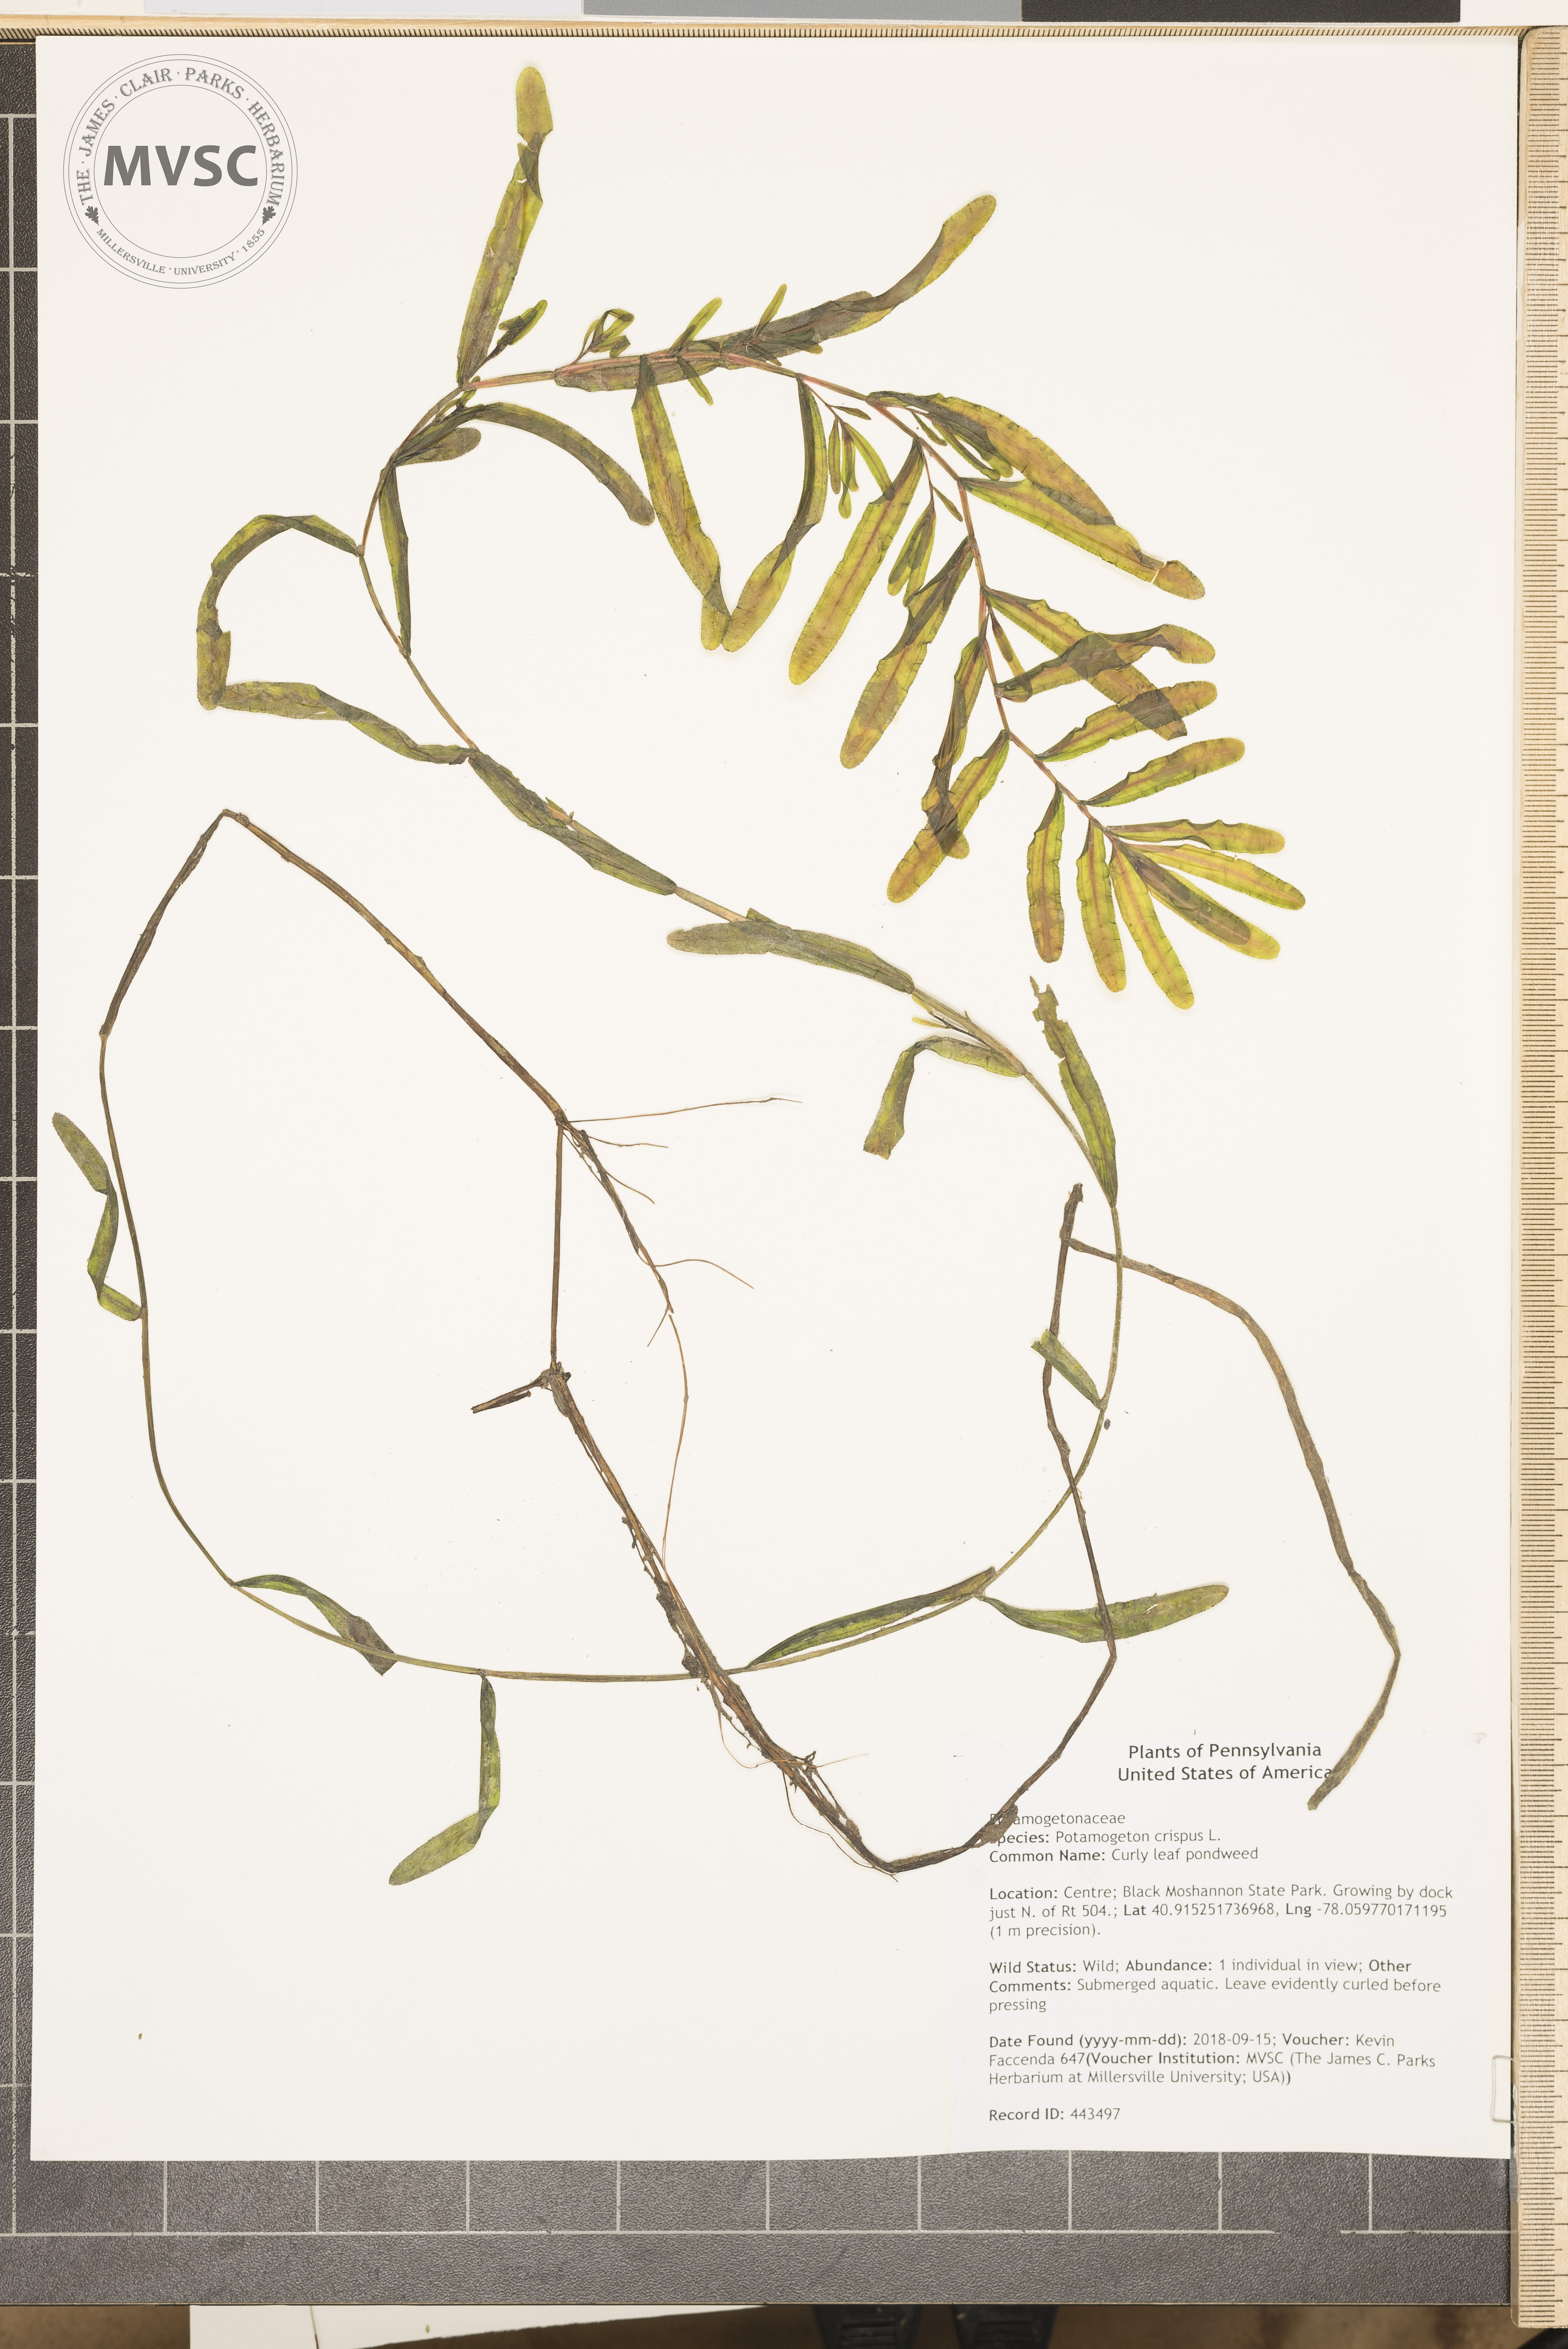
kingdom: Plantae
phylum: Tracheophyta
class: Liliopsida
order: Alismatales
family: Potamogetonaceae
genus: Potamogeton
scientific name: Potamogeton crispus
